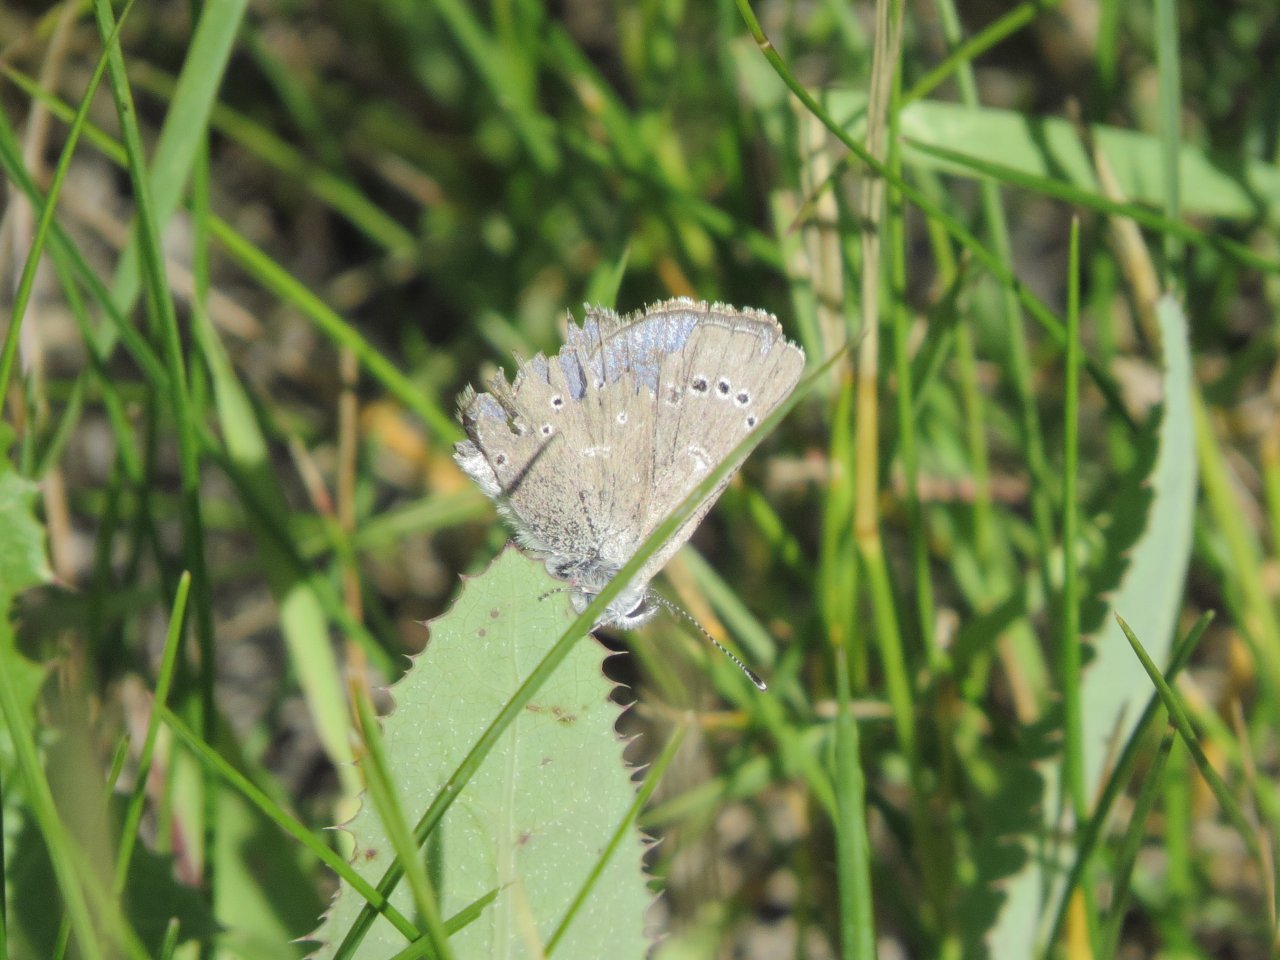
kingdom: Animalia
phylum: Arthropoda
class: Insecta
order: Lepidoptera
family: Lycaenidae
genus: Glaucopsyche
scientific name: Glaucopsyche lygdamus
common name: Silvery Blue
